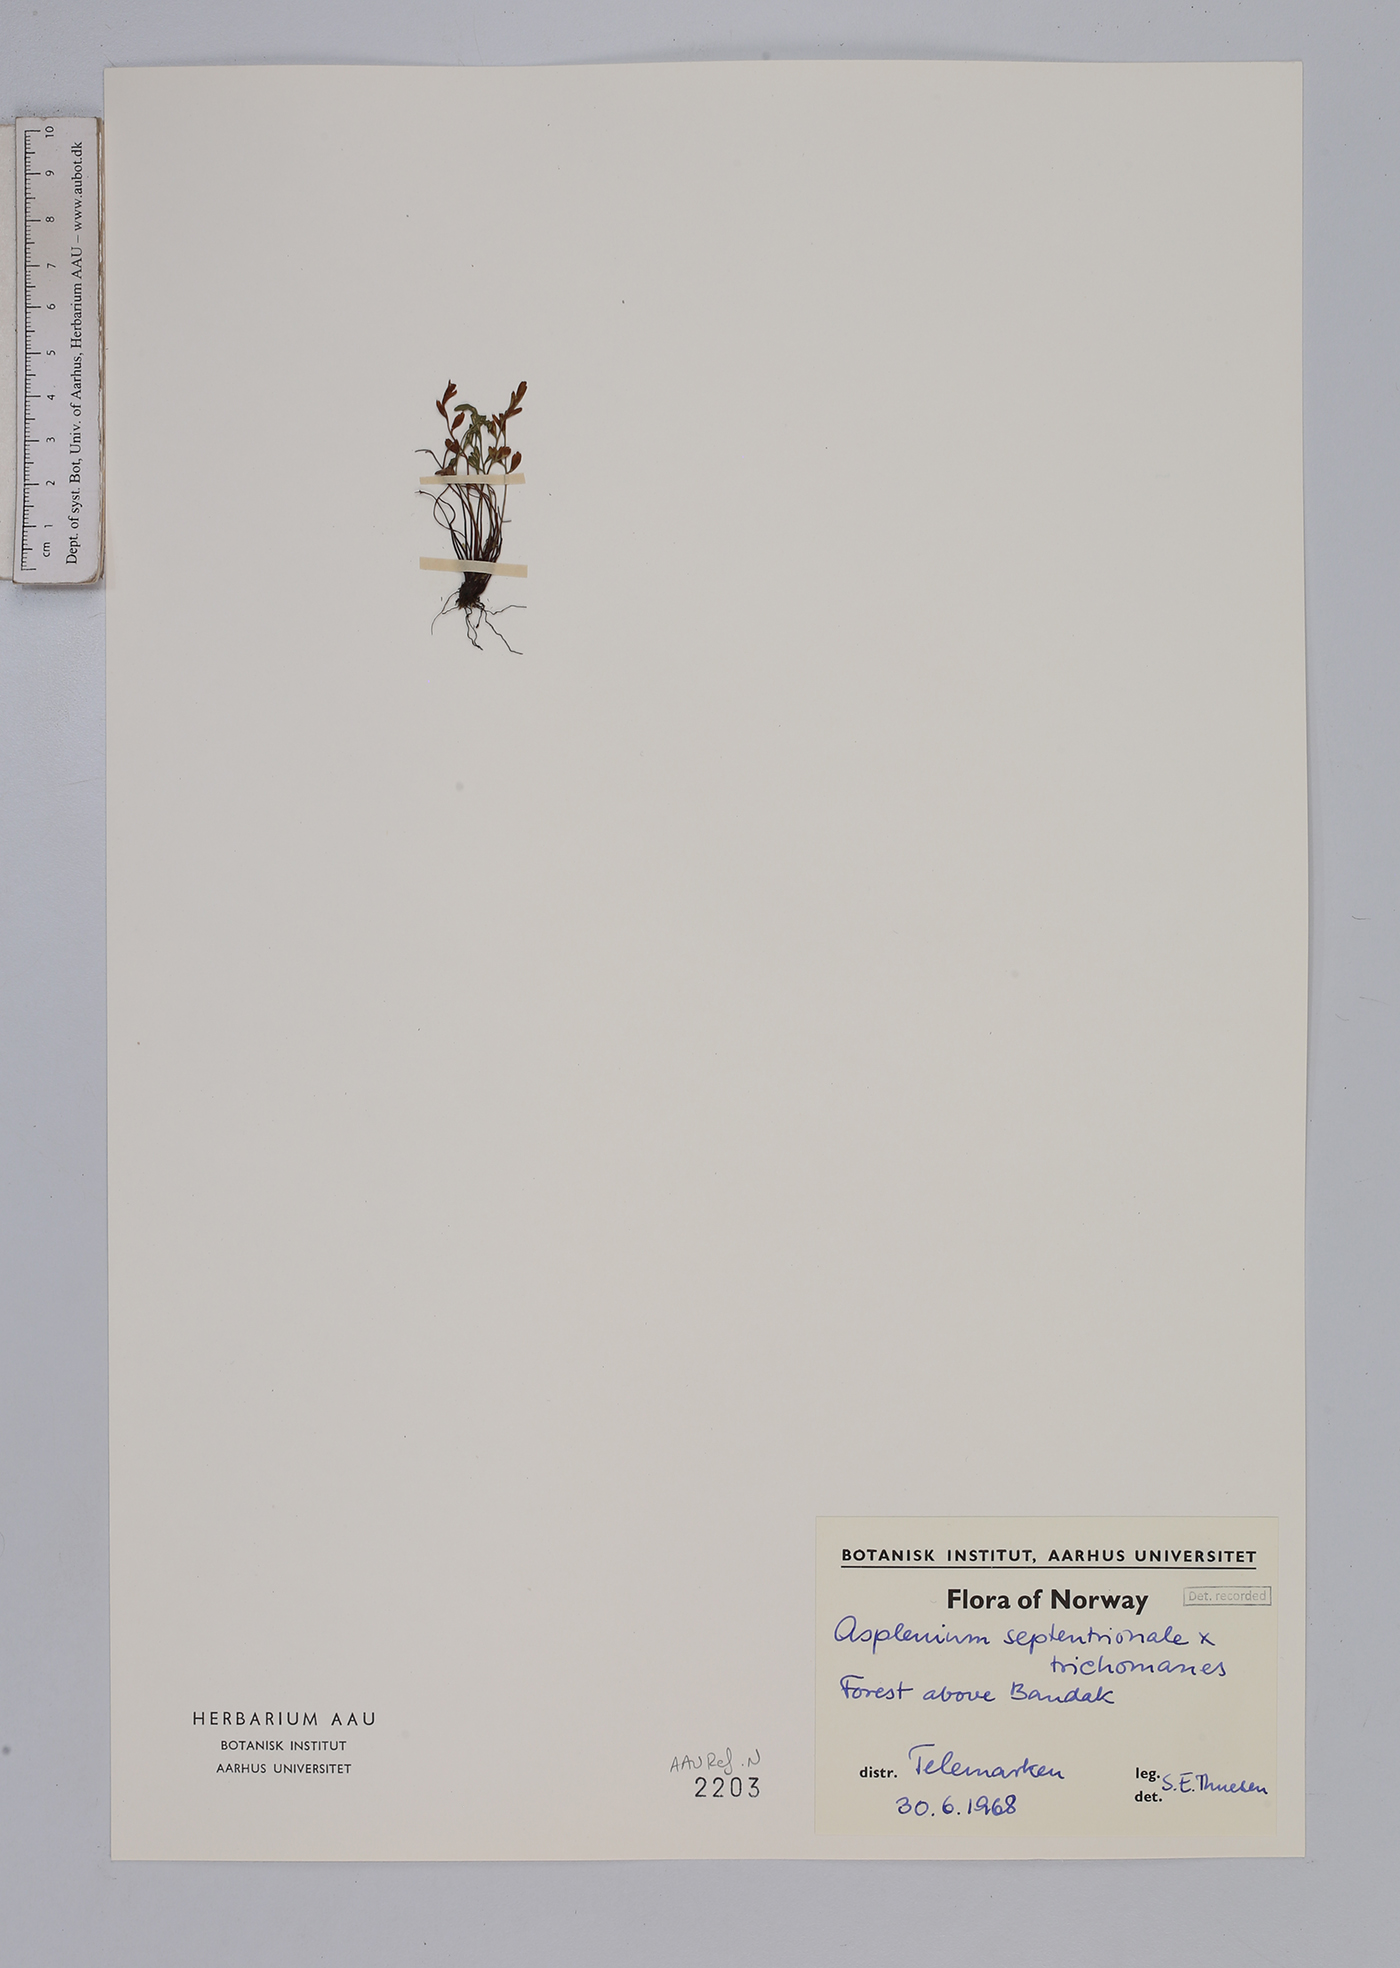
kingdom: Plantae
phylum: Tracheophyta
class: Polypodiopsida
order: Polypodiales
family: Aspleniaceae
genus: Asplenium
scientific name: Asplenium
